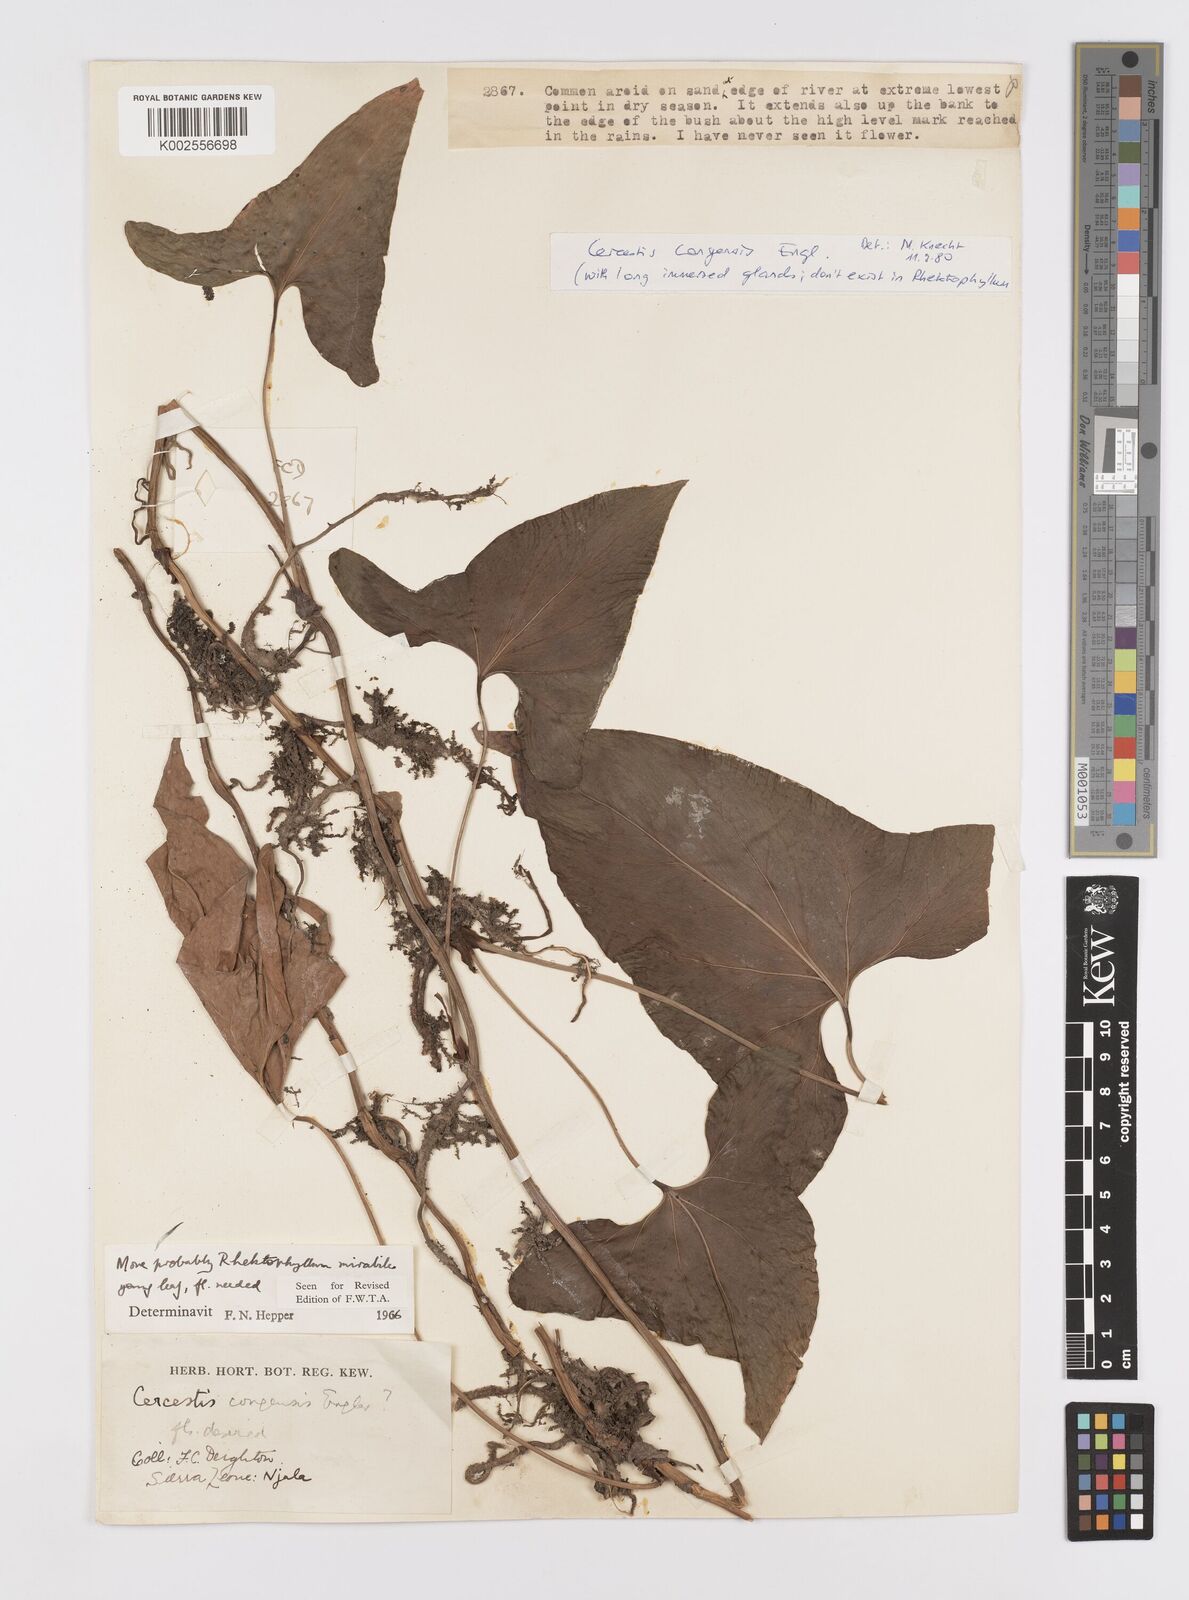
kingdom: Plantae
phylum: Tracheophyta
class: Liliopsida
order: Alismatales
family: Araceae
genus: Cercestis
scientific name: Cercestis congoensis
